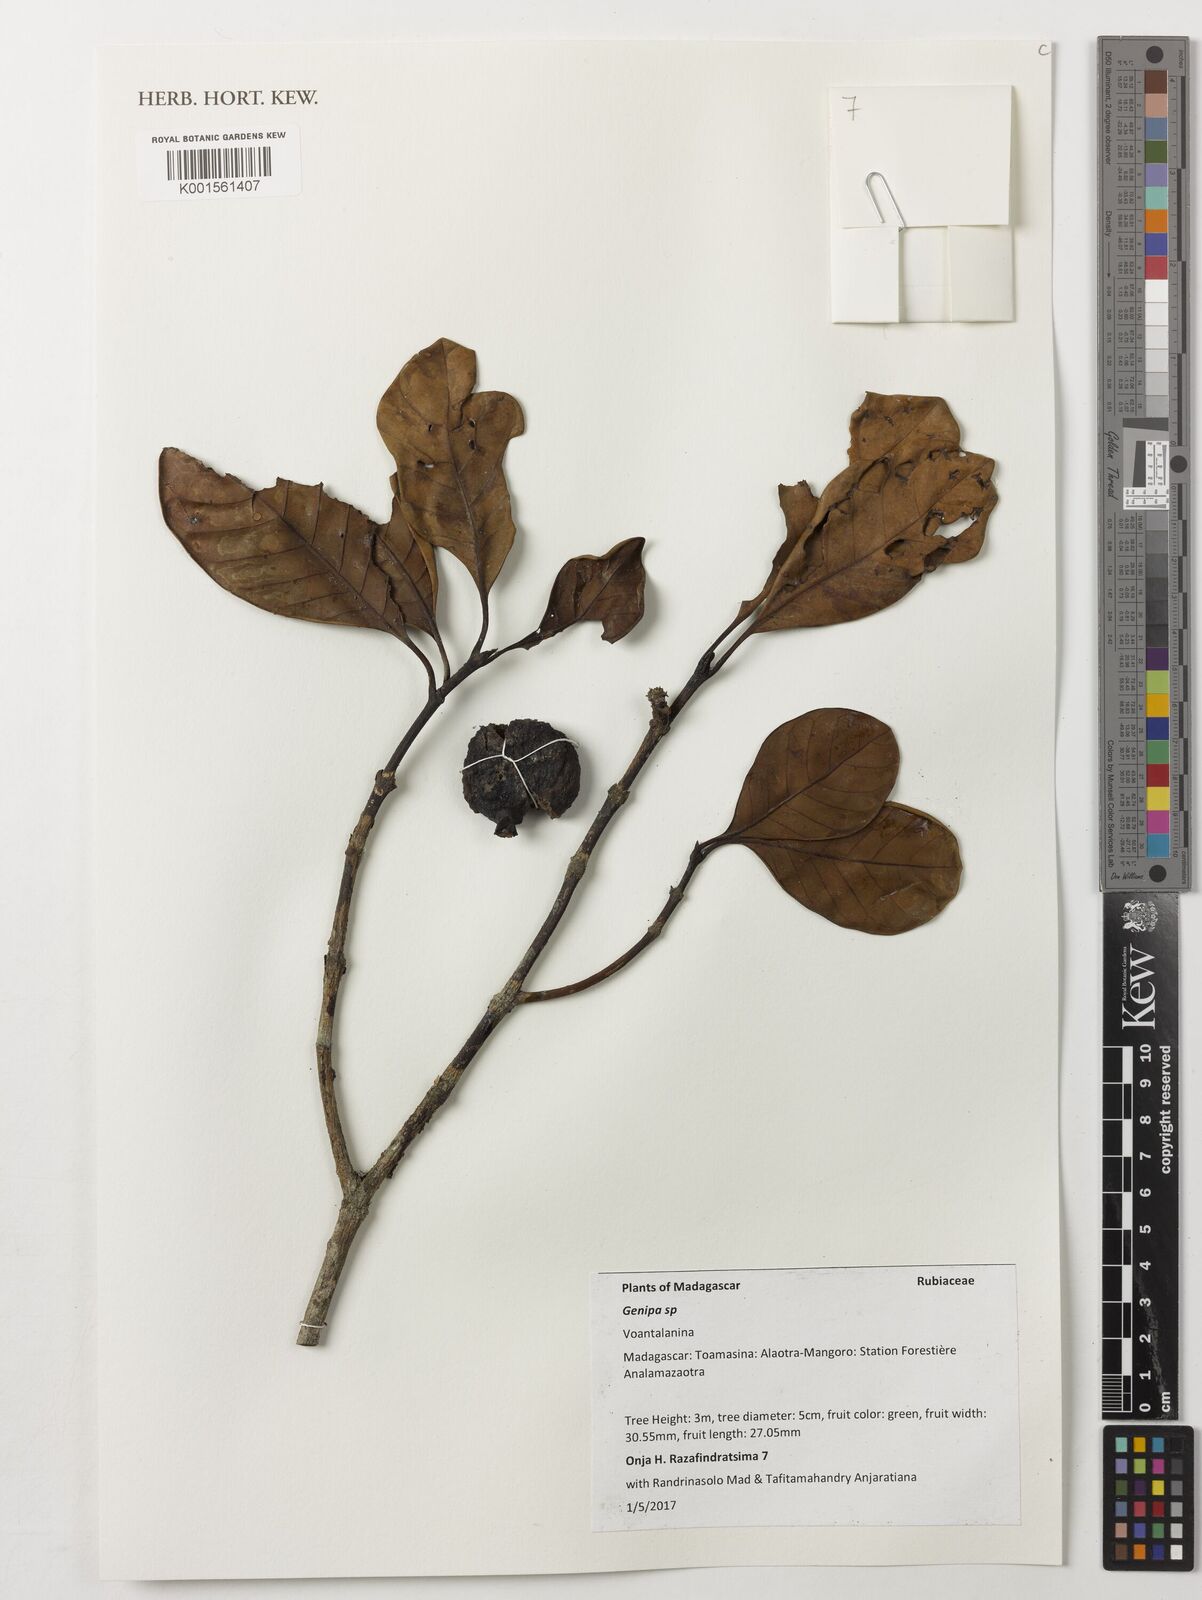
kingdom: Plantae
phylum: Tracheophyta
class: Magnoliopsida
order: Gentianales
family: Rubiaceae
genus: Genipa
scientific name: Genipa
